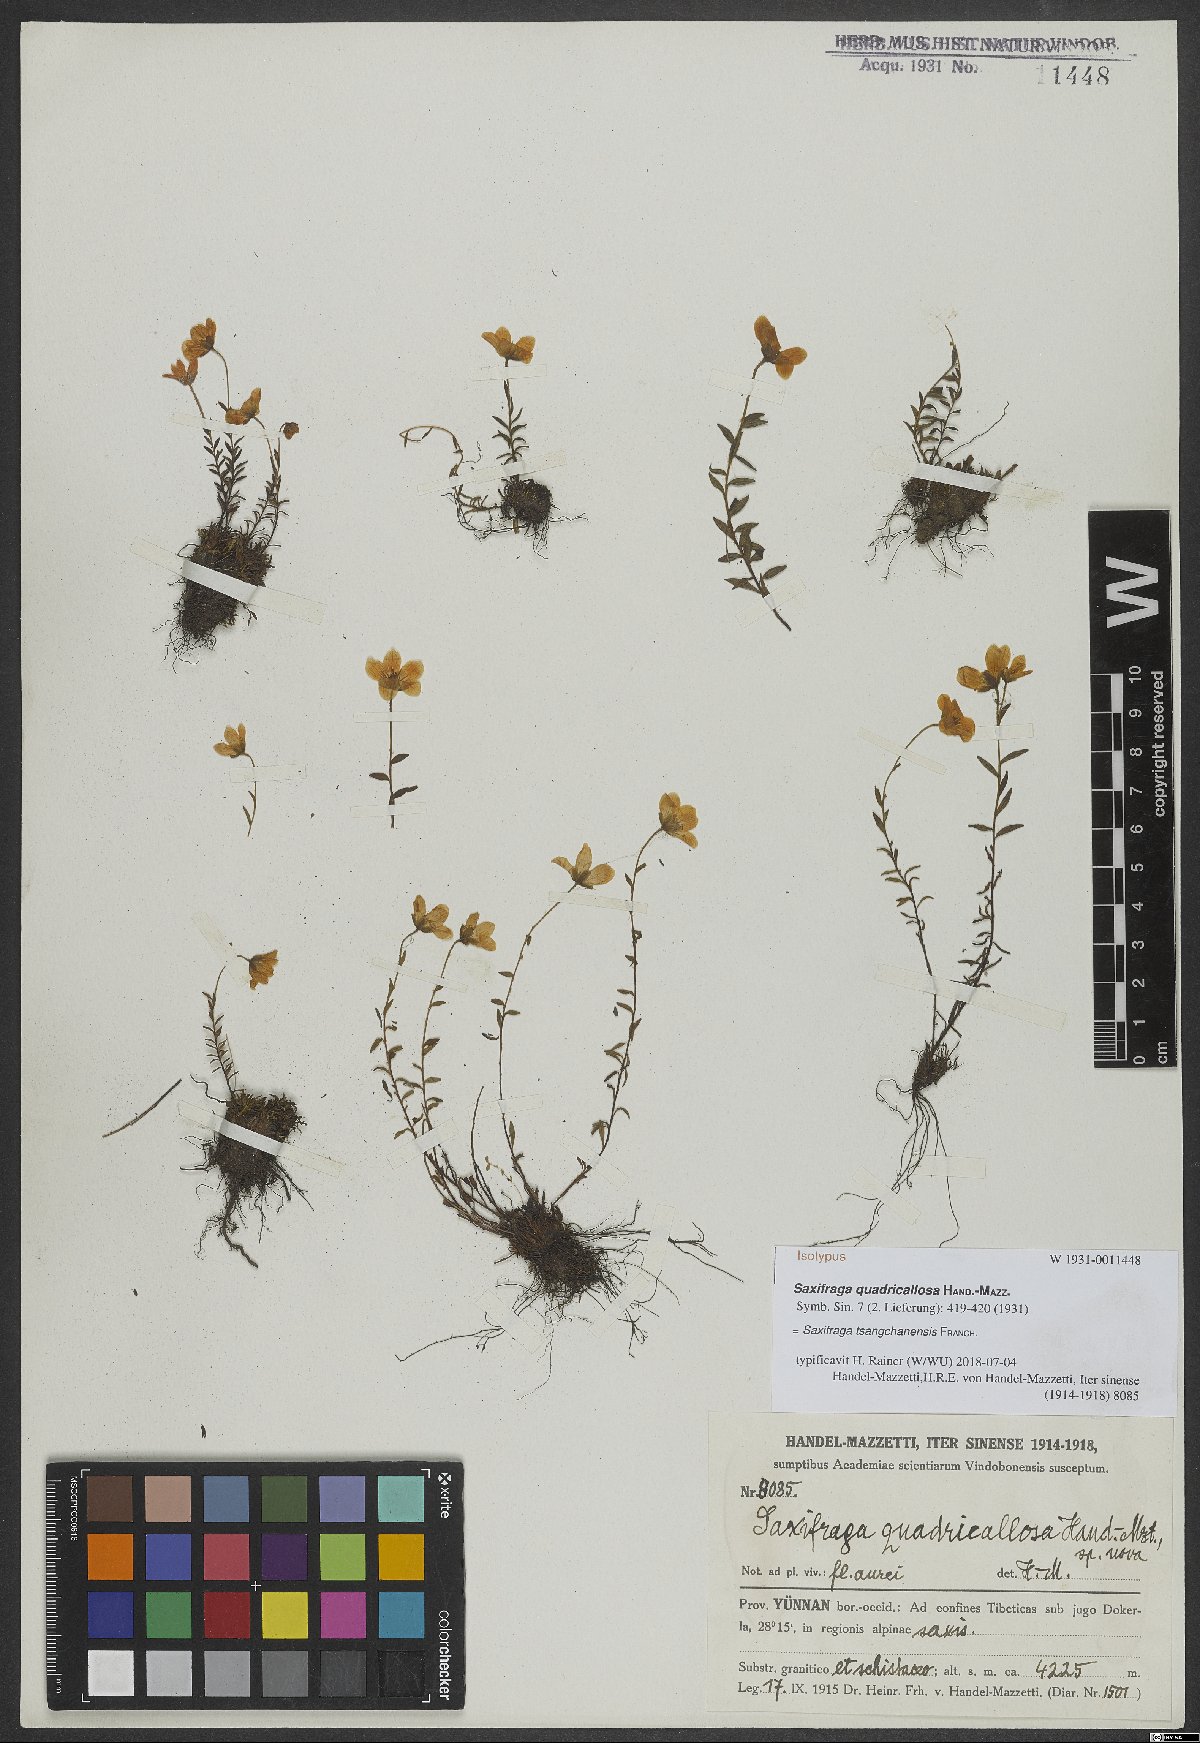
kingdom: Plantae
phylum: Tracheophyta
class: Magnoliopsida
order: Saxifragales
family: Saxifragaceae
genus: Saxifraga
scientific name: Saxifraga tsangchanensis
